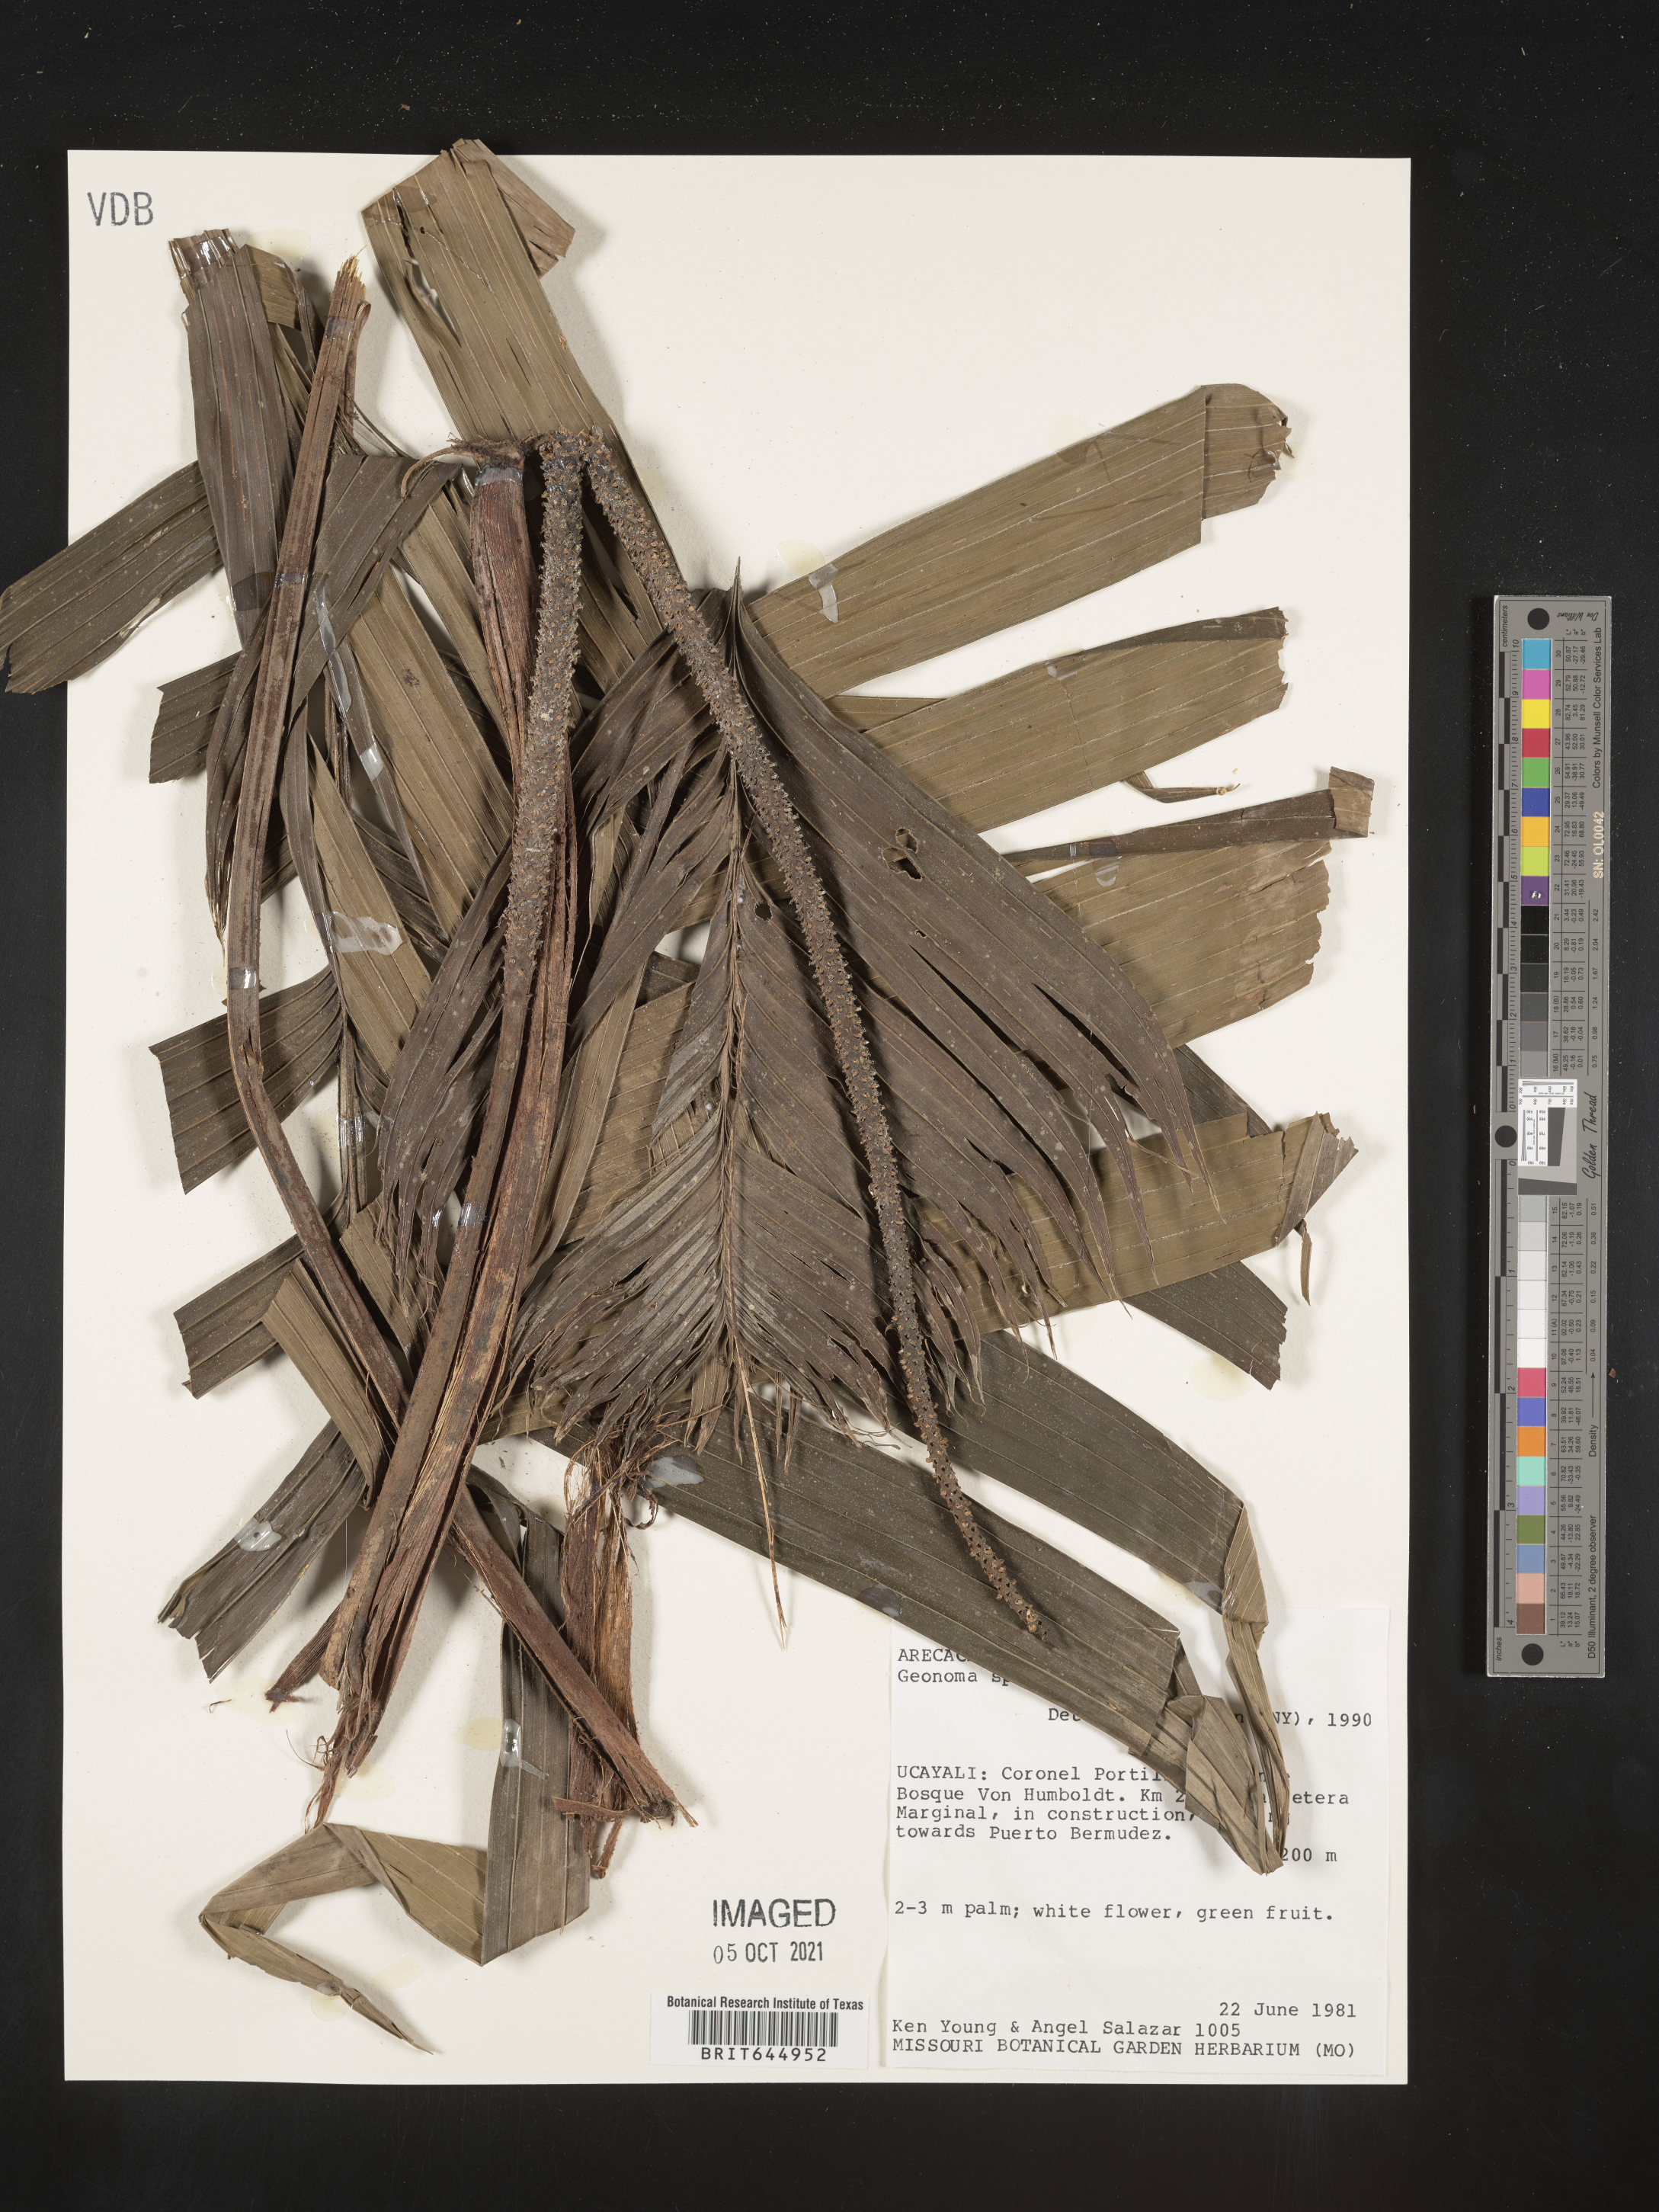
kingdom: Plantae
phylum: Tracheophyta
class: Liliopsida
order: Arecales
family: Arecaceae
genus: Geonoma
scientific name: Geonoma
